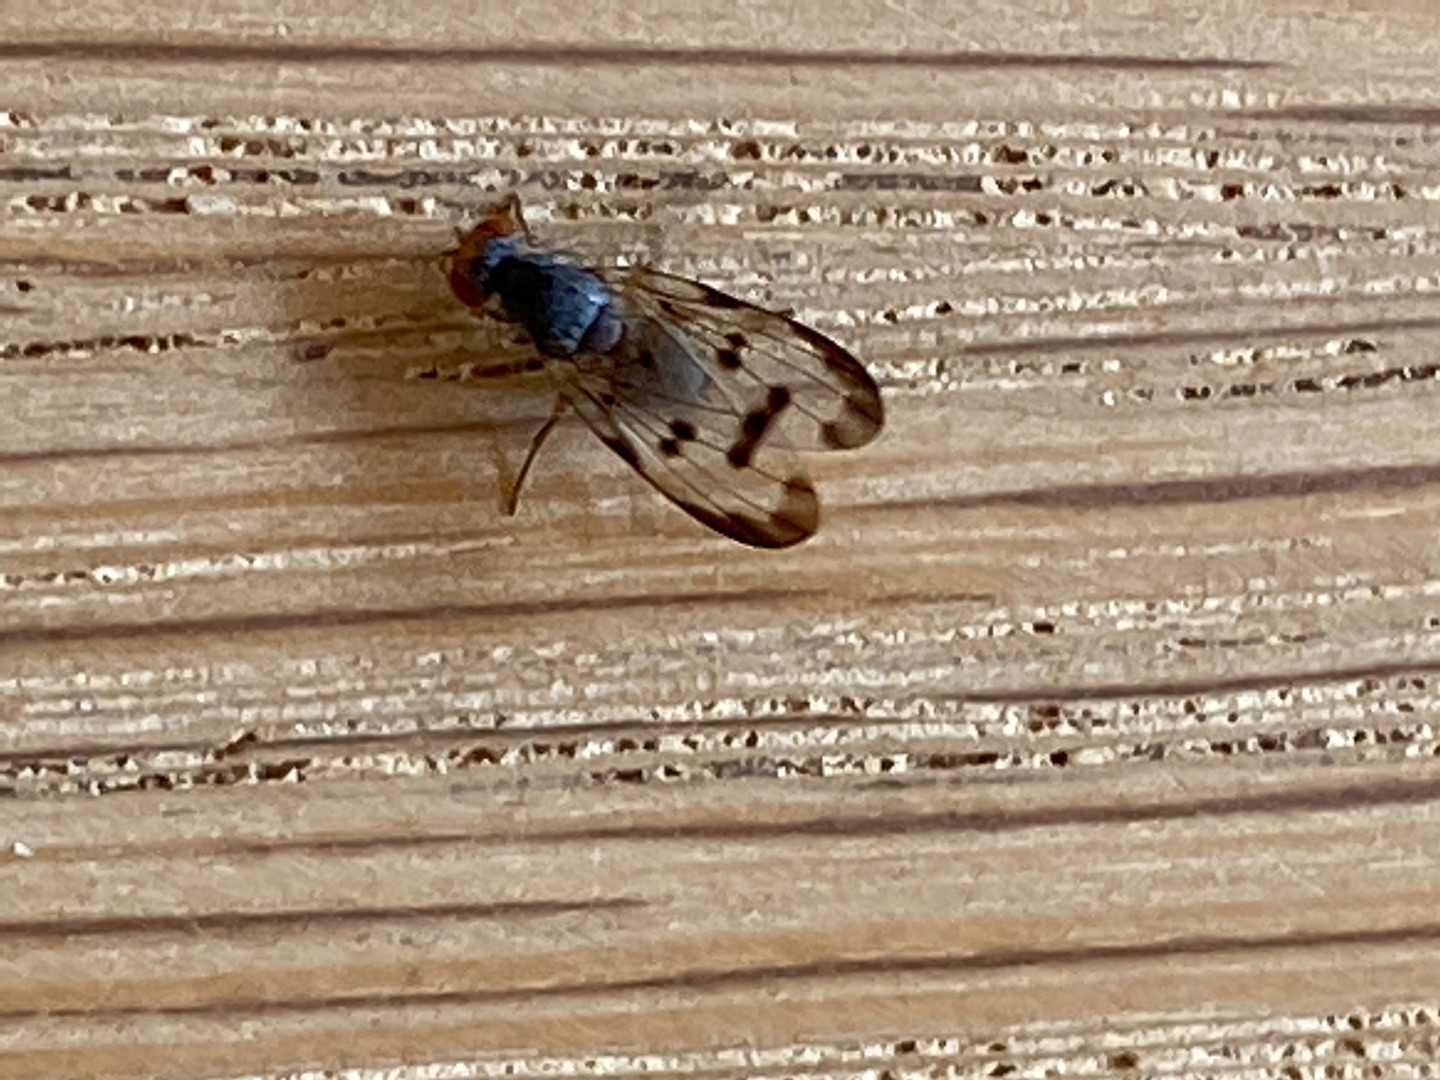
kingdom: Animalia
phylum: Arthropoda
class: Insecta
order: Diptera
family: Pallopteridae
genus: Palloptera
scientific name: Palloptera umbellatarum
